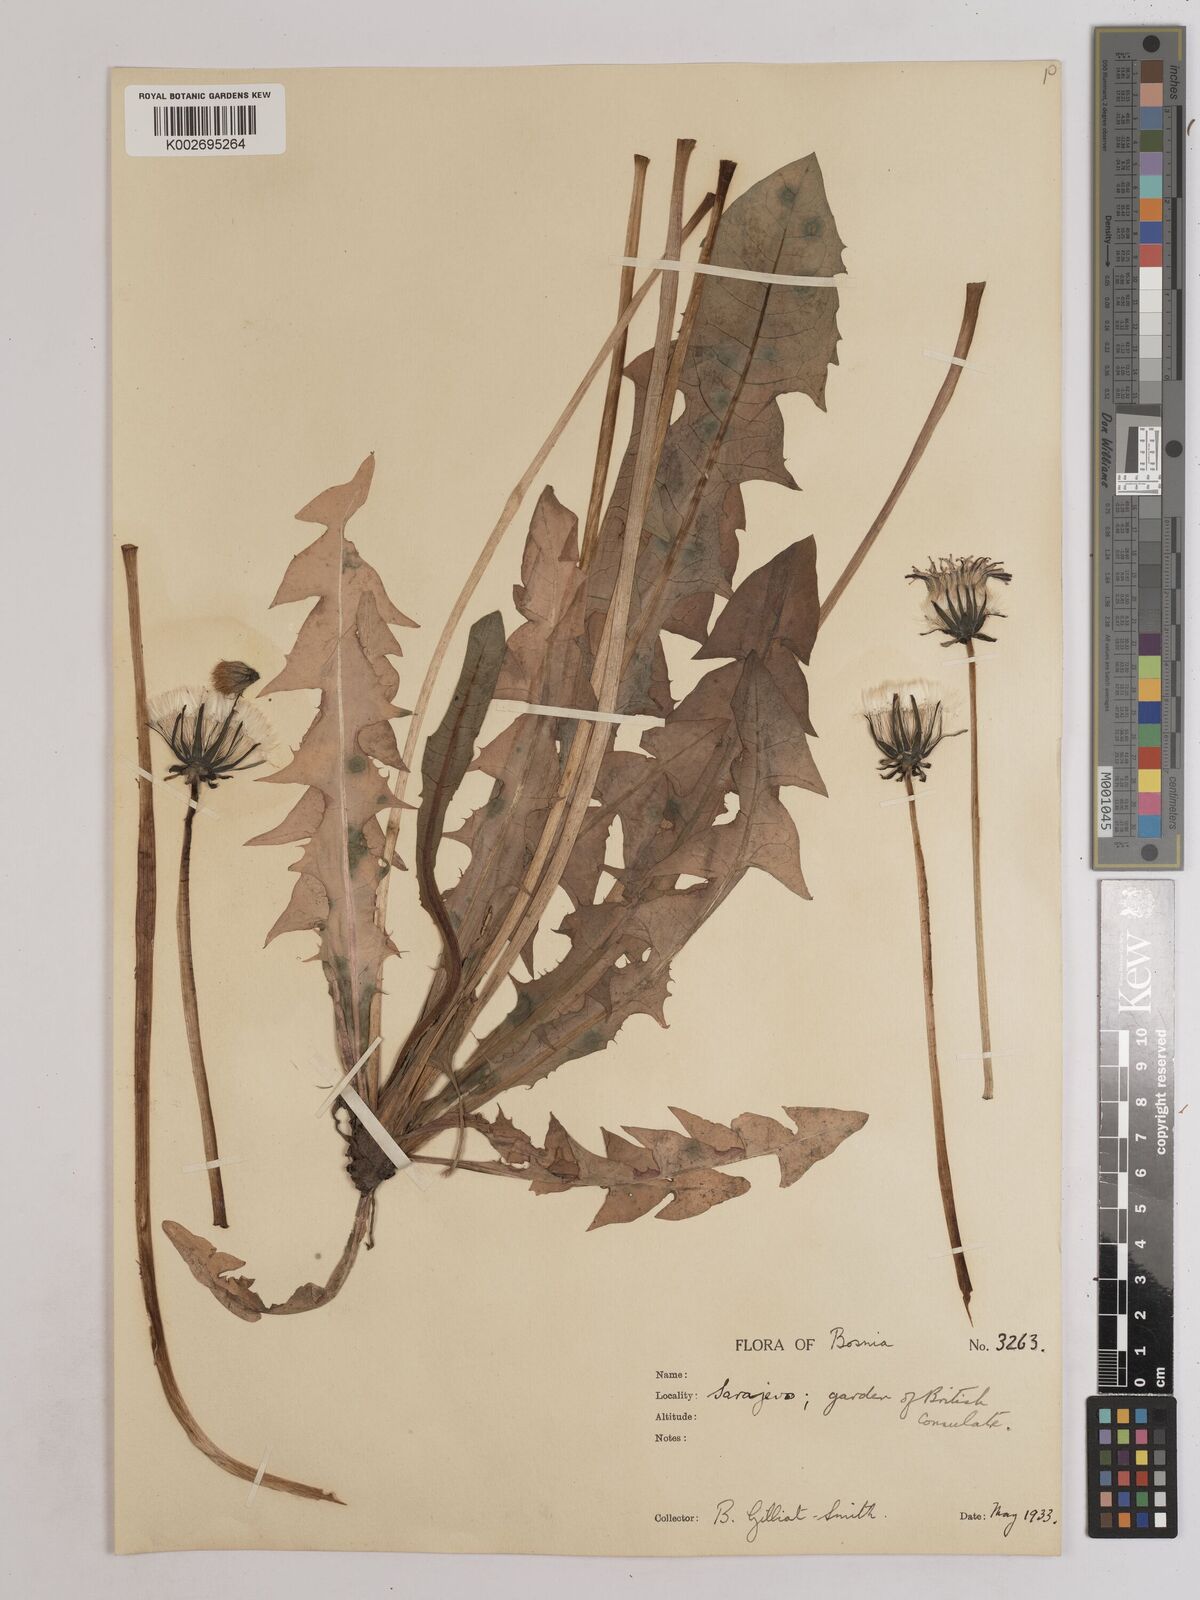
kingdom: Plantae
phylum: Tracheophyta
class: Magnoliopsida
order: Asterales
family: Asteraceae
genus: Taraxacum
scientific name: Taraxacum officinale
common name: Common dandelion
